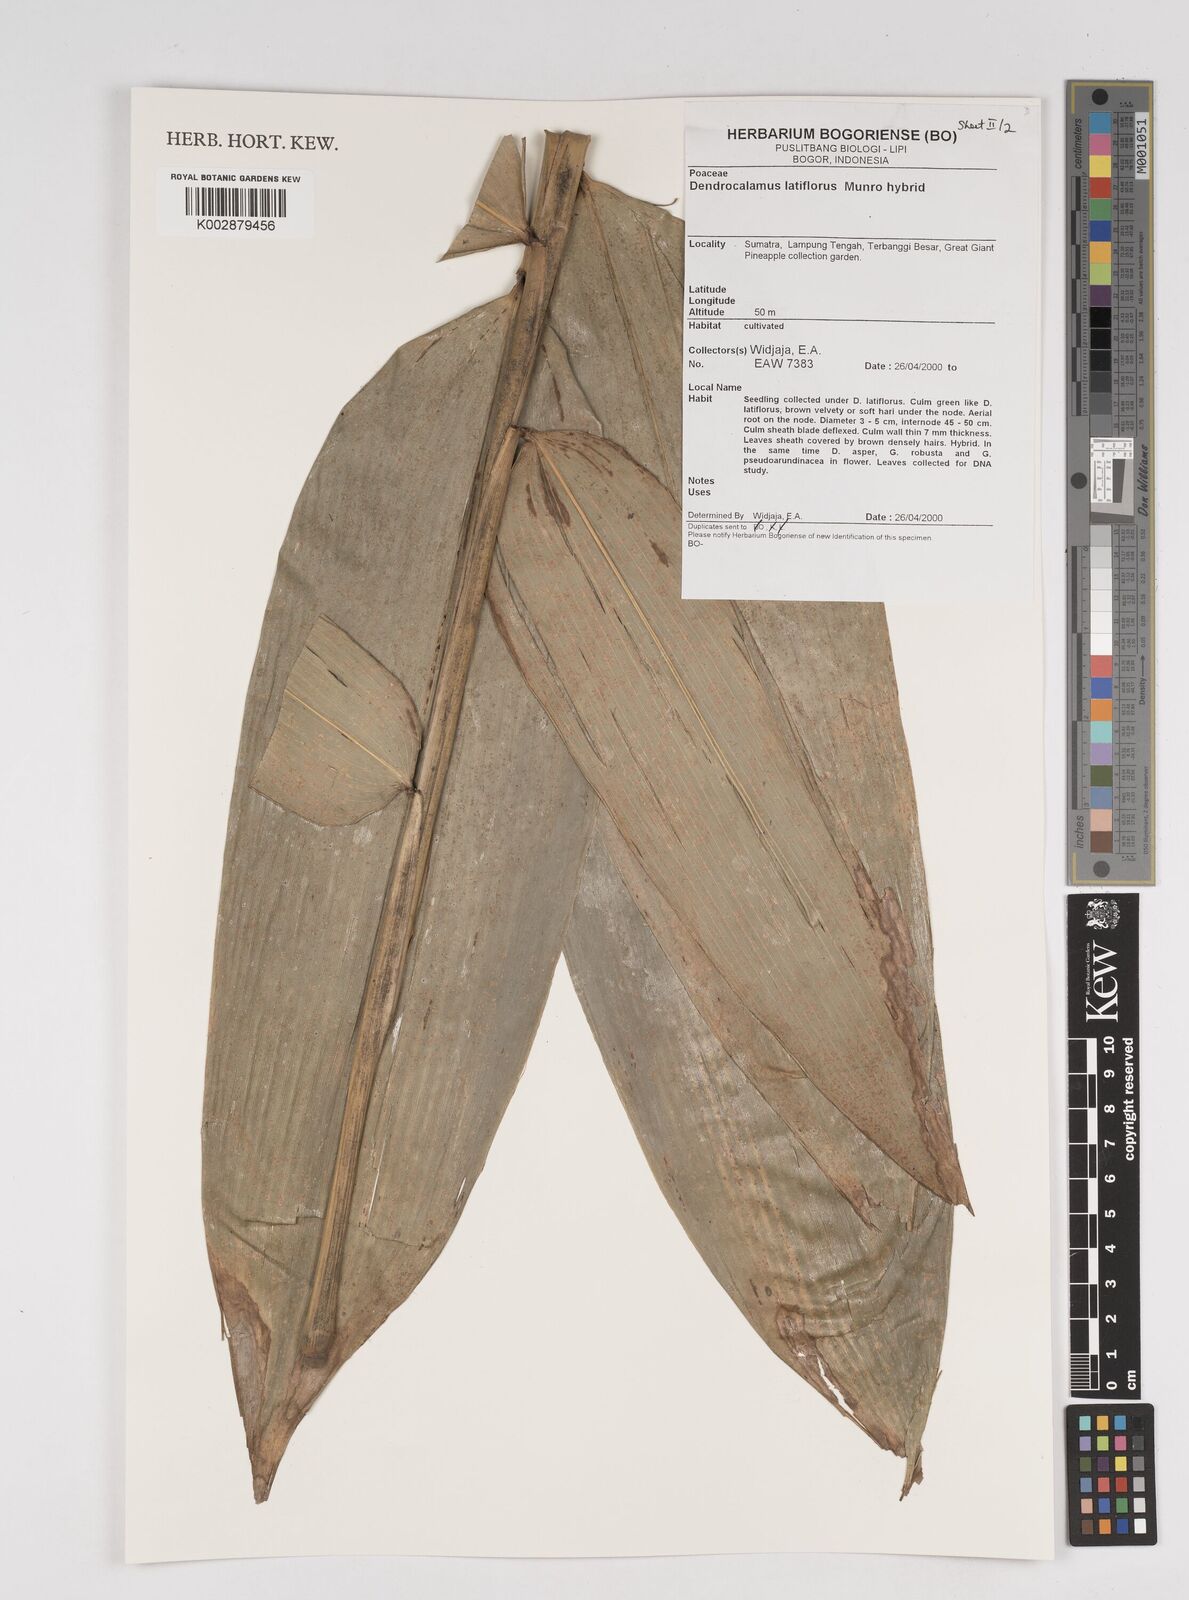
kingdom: Plantae
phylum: Tracheophyta
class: Liliopsida
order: Poales
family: Poaceae
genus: Dendrocalamus
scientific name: Dendrocalamus latiflorus
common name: Giant bamboo
